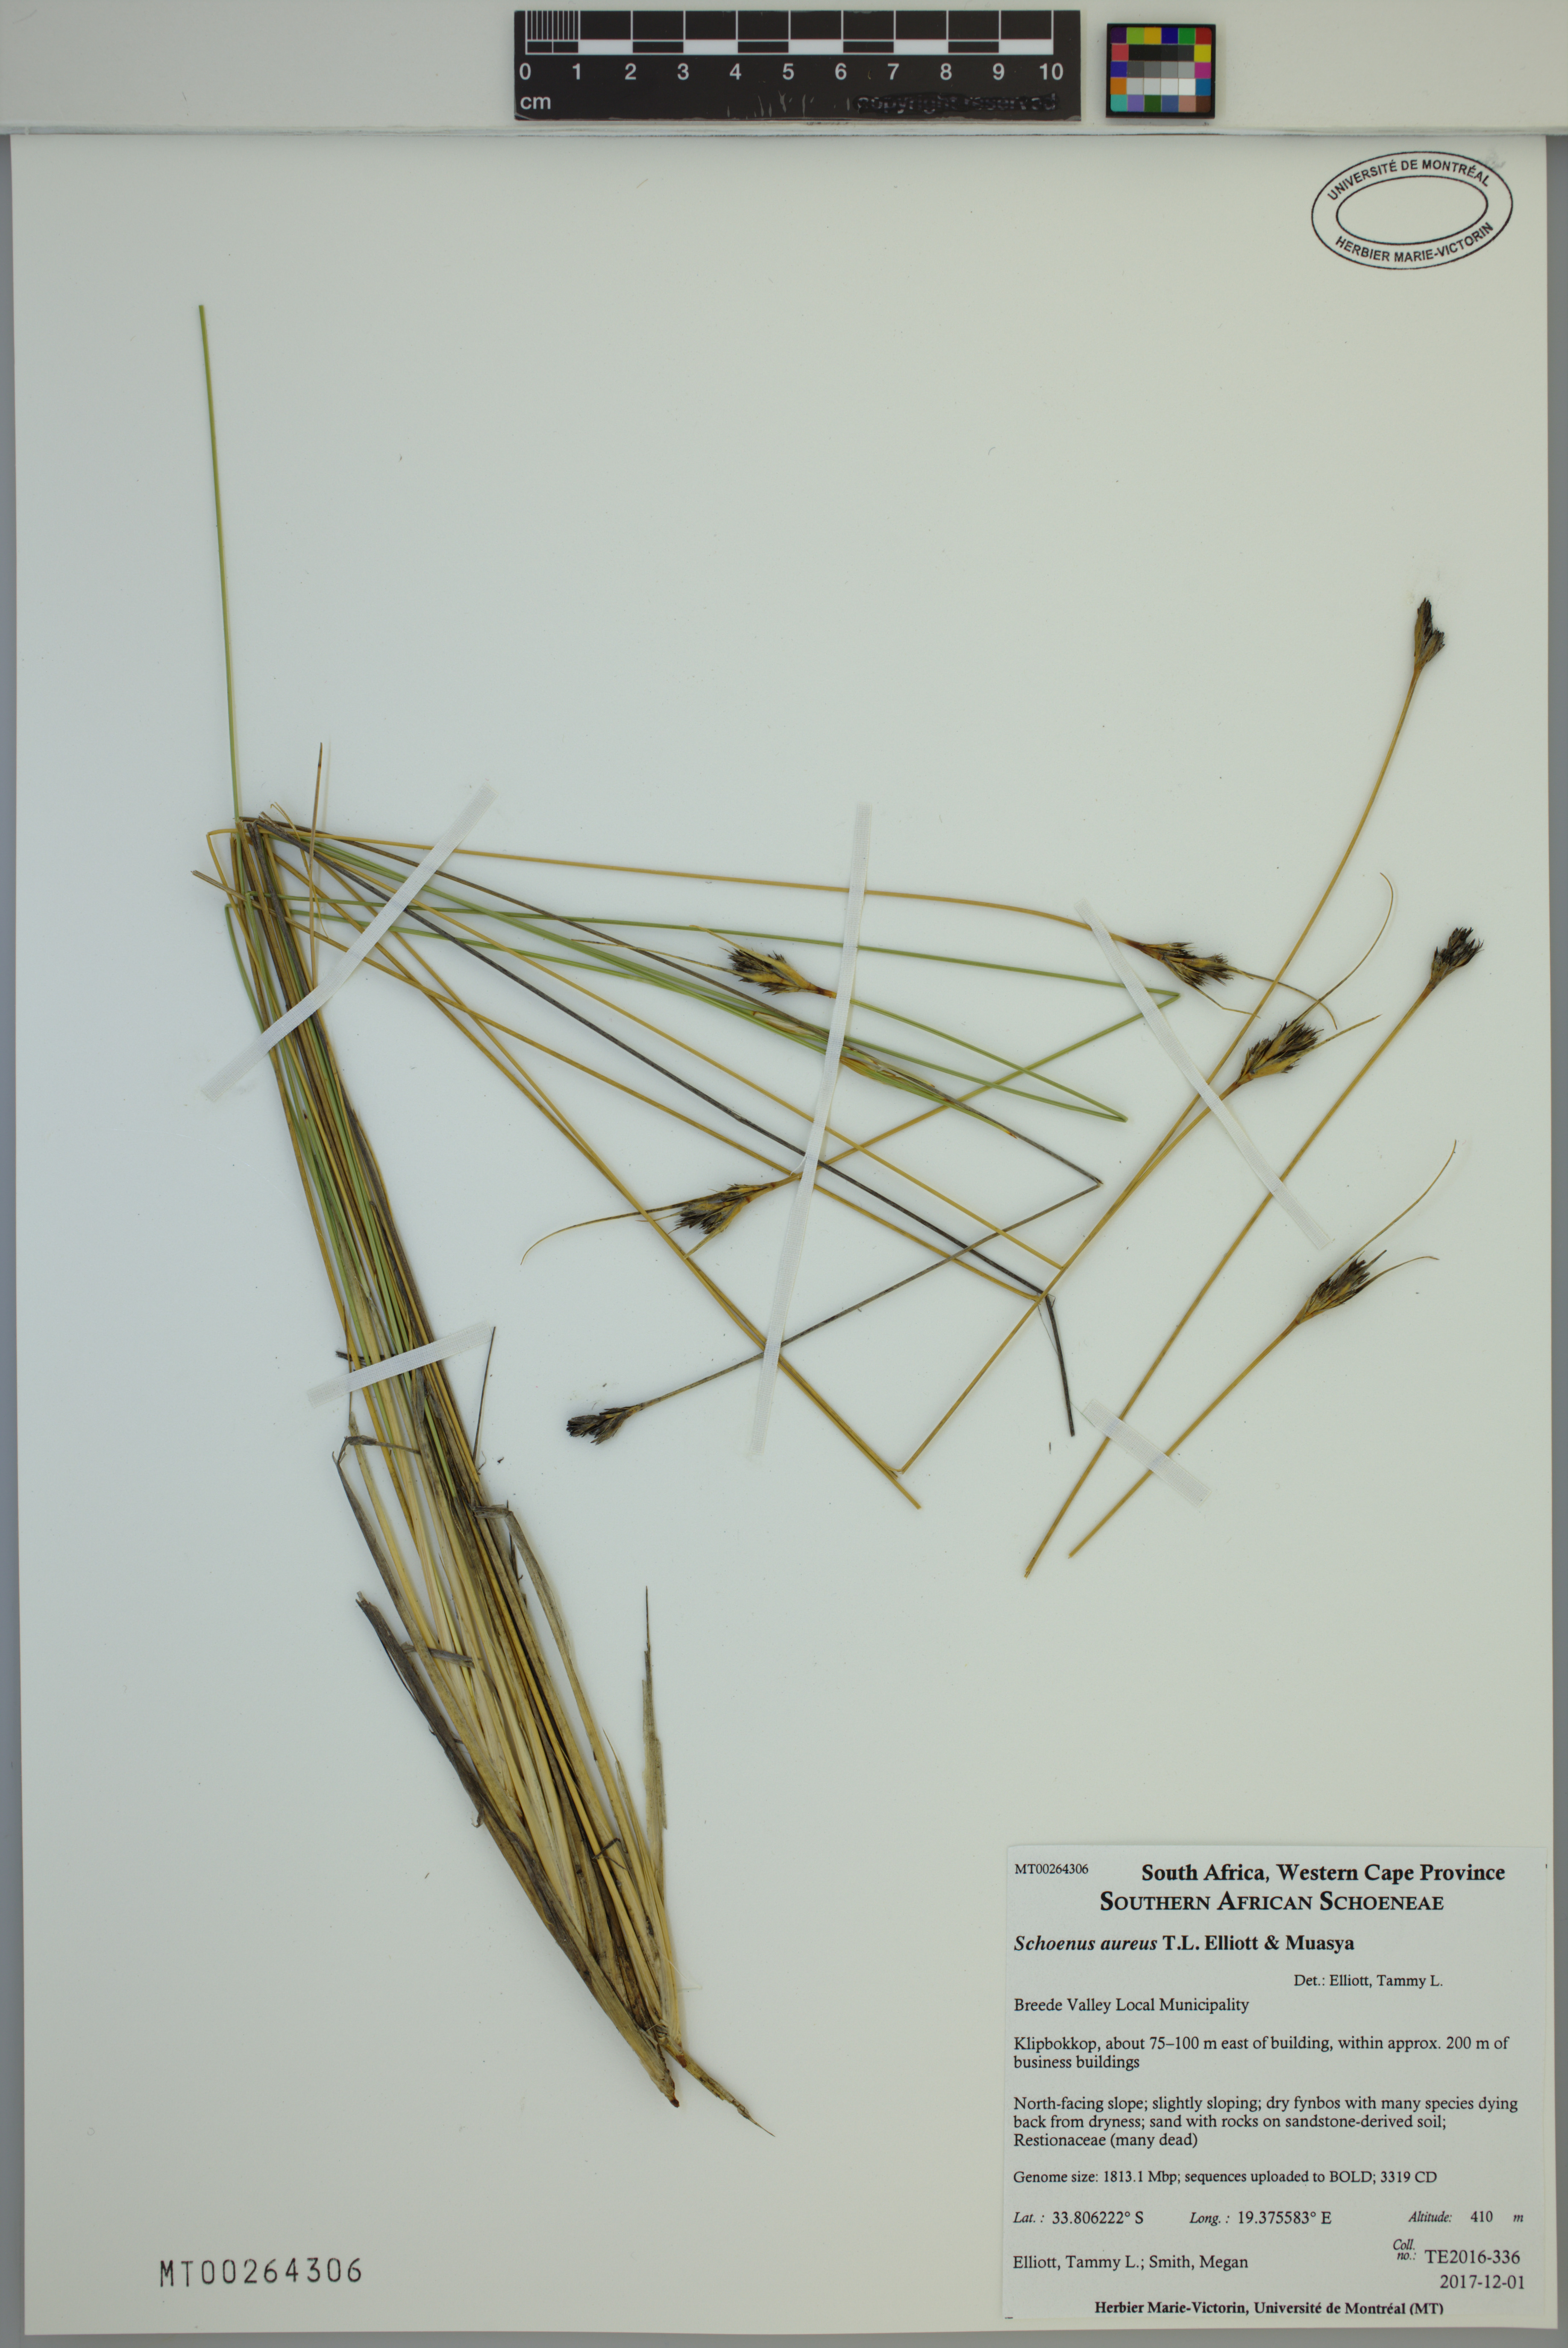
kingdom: Plantae
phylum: Tracheophyta
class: Liliopsida
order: Poales
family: Cyperaceae
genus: Schoenus
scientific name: Schoenus aureus
